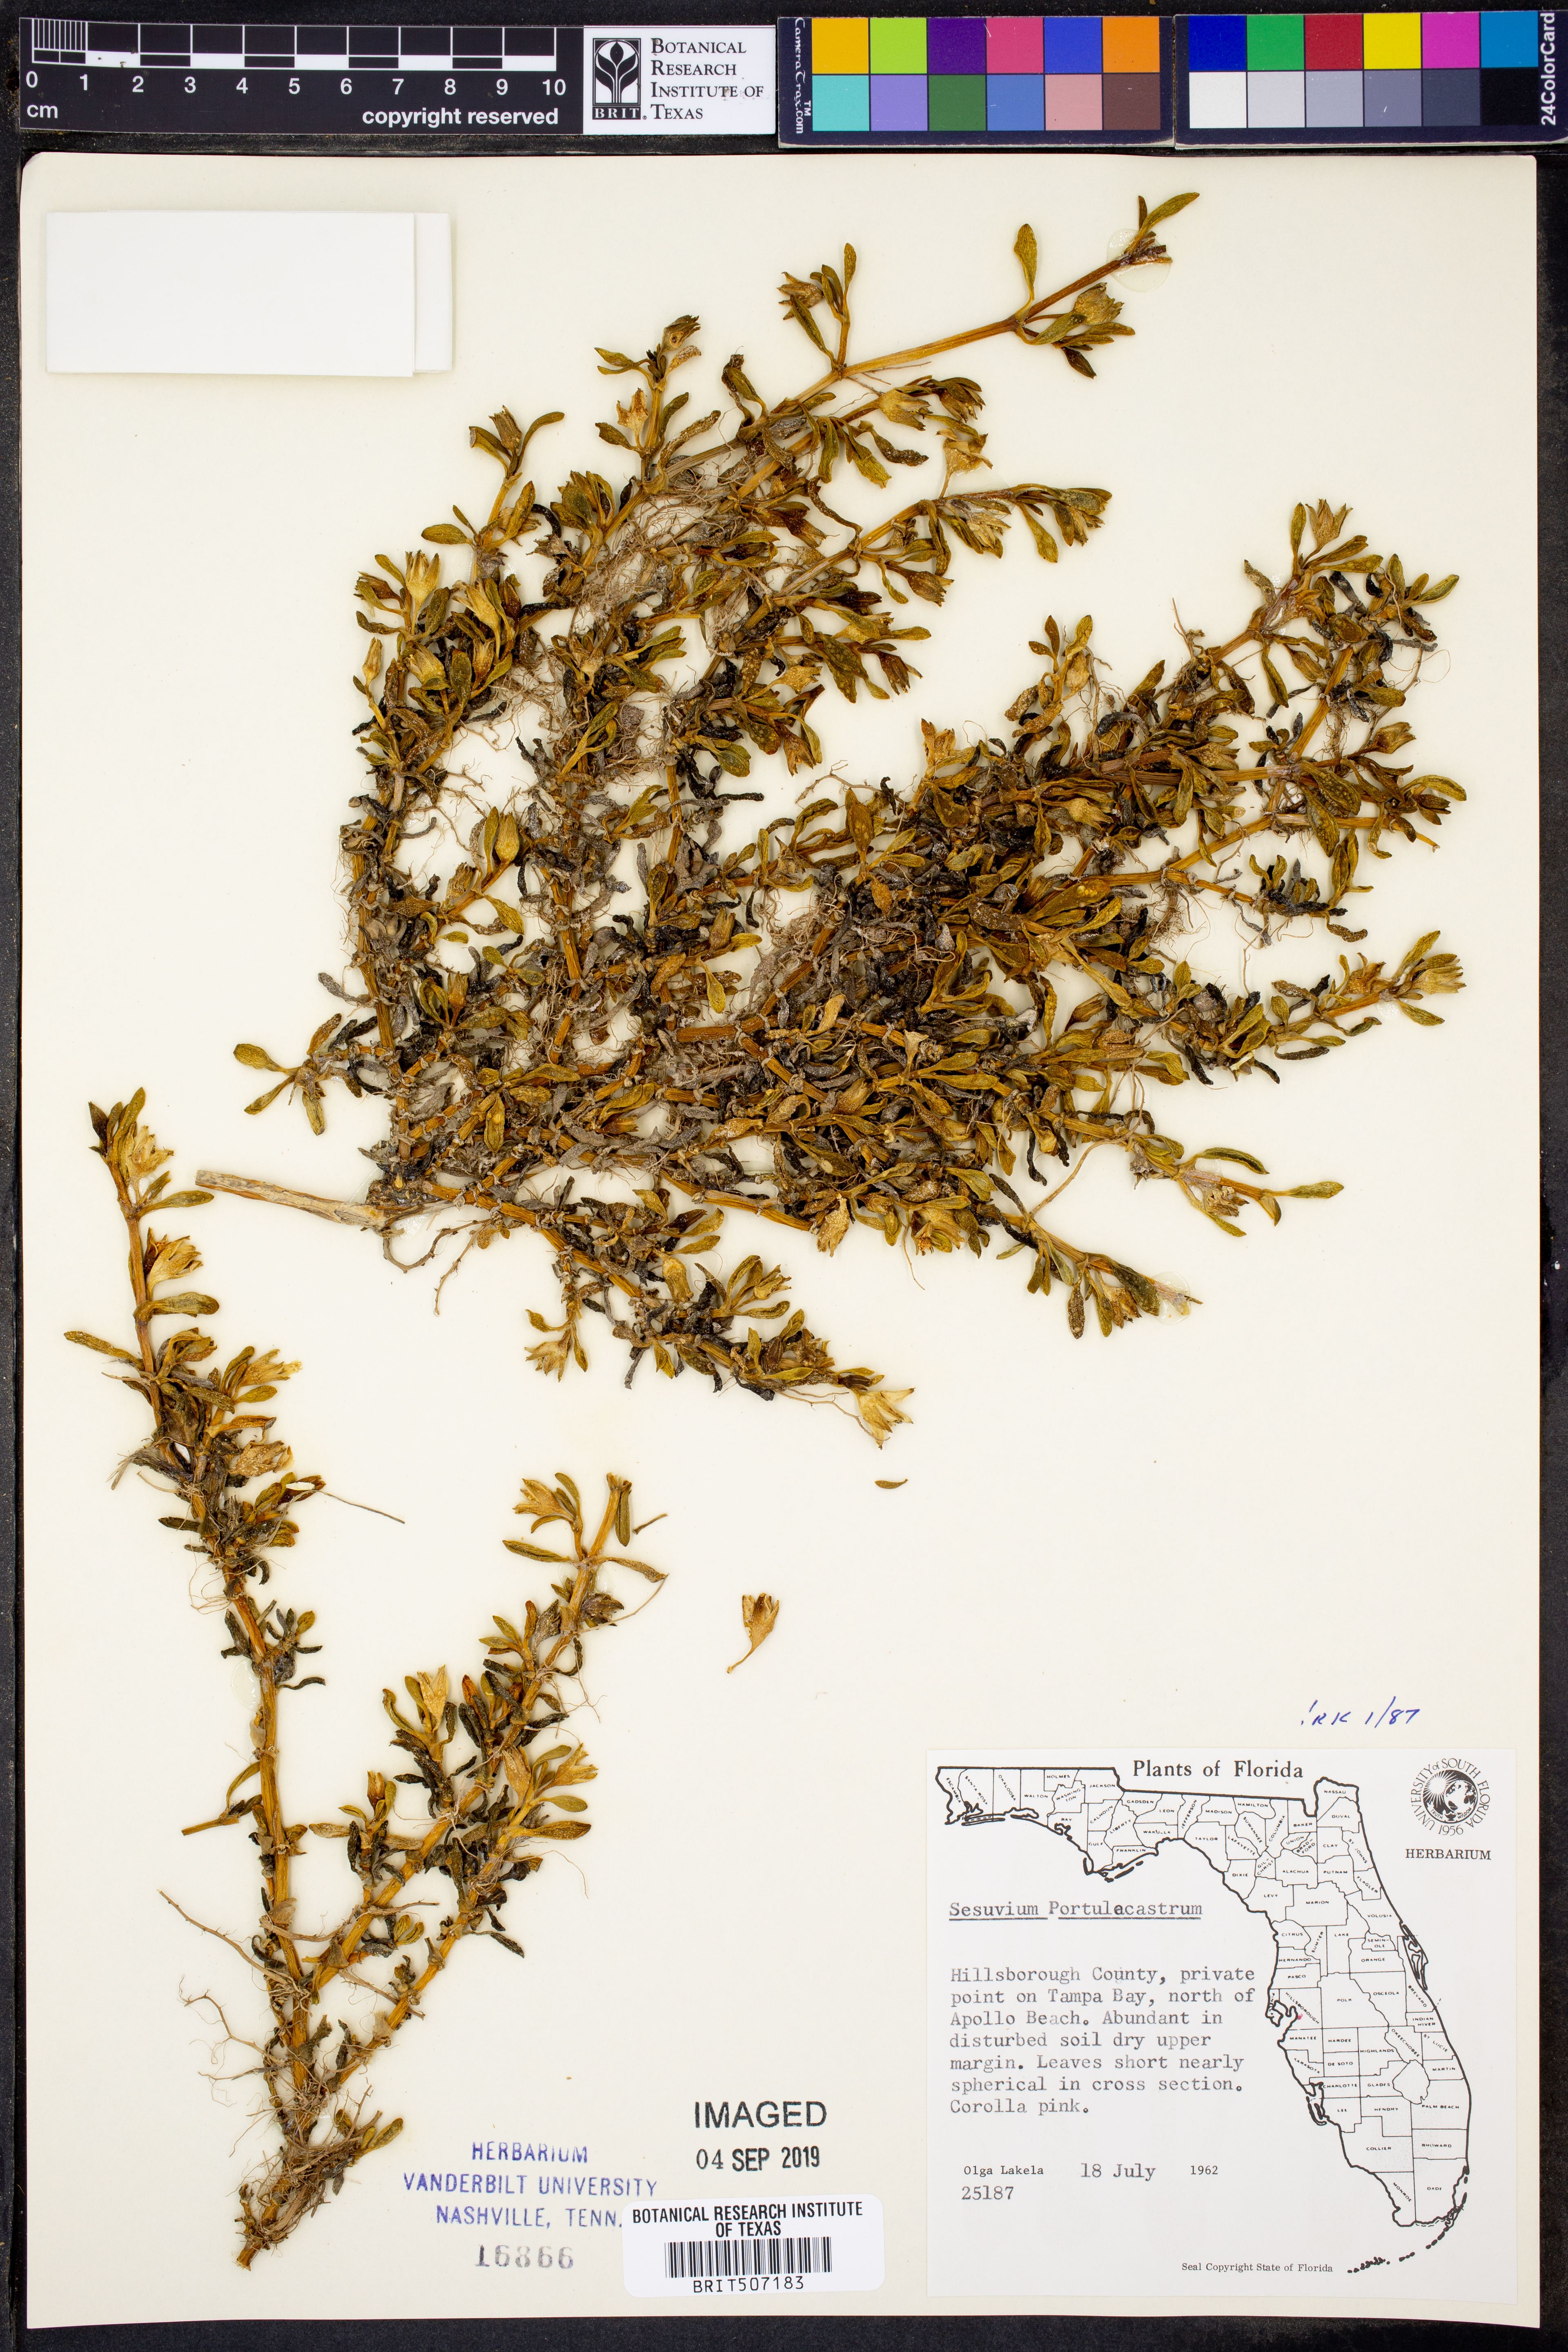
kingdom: Plantae
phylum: Tracheophyta
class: Magnoliopsida
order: Caryophyllales
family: Aizoaceae
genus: Sesuvium
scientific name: Sesuvium portulacastrum
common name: Sea-purslane
